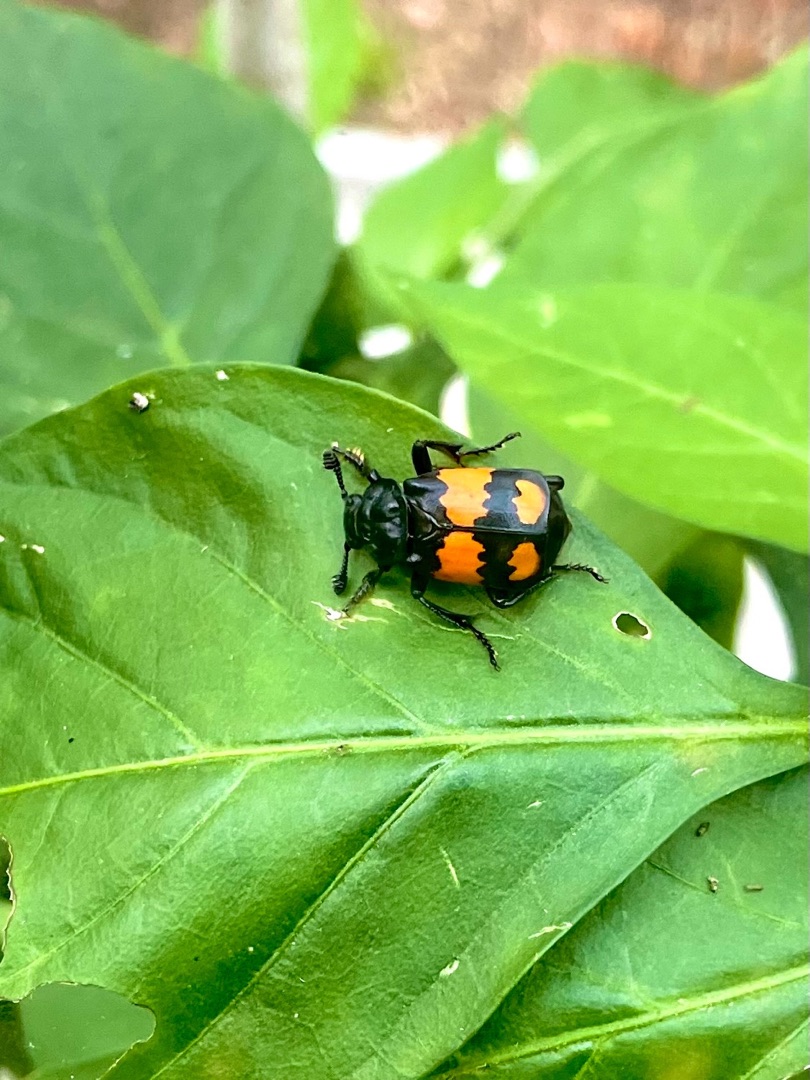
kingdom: Animalia
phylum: Arthropoda
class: Insecta
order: Coleoptera
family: Staphylinidae
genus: Nicrophorus
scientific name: Nicrophorus vespilloides
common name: Sortkøllet ådselgraver
